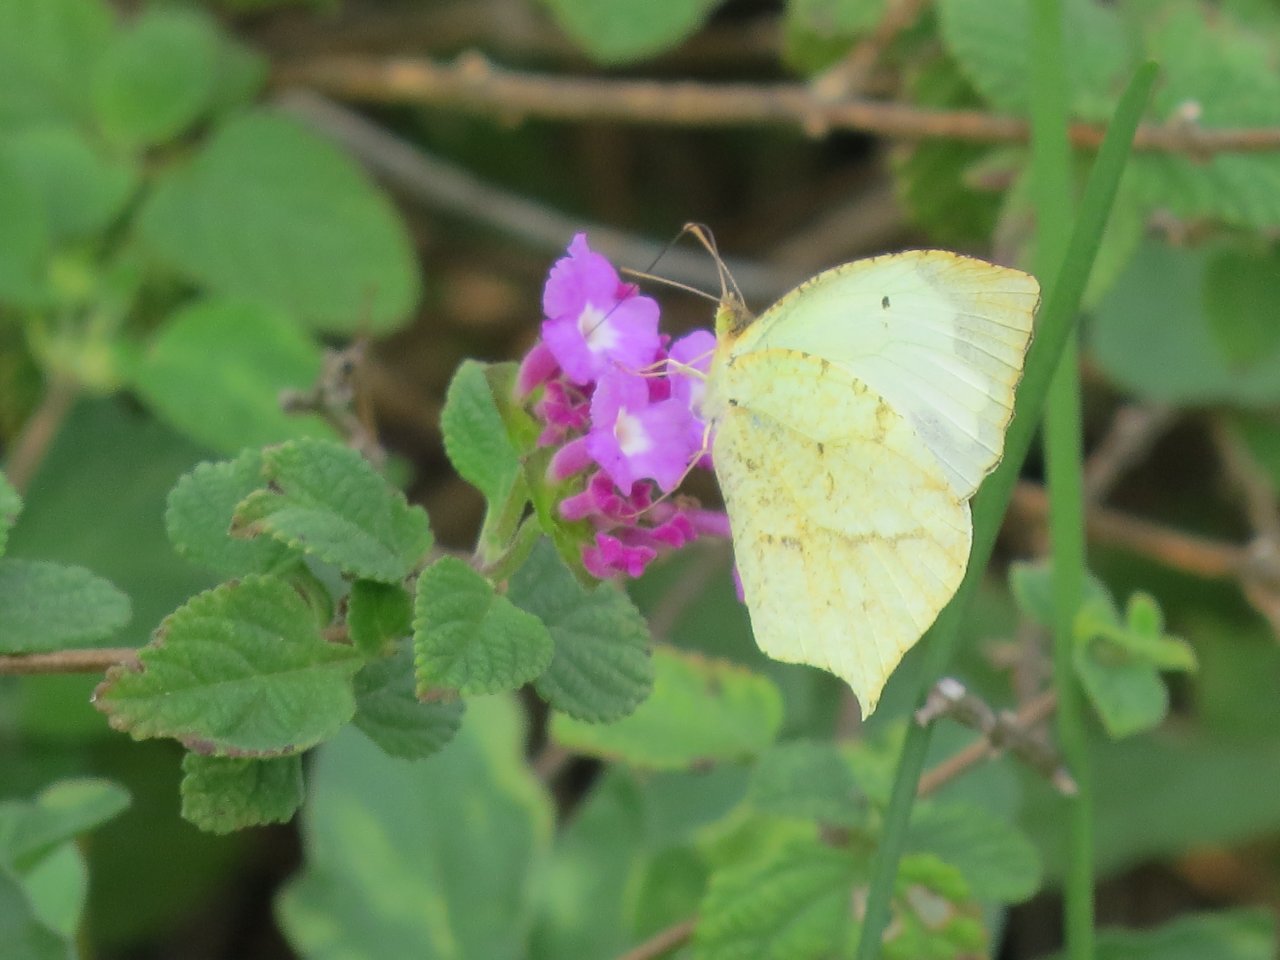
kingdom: Animalia
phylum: Arthropoda
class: Insecta
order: Lepidoptera
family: Pieridae
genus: Eurema
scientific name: Eurema mexicana
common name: Mexican Yellow
